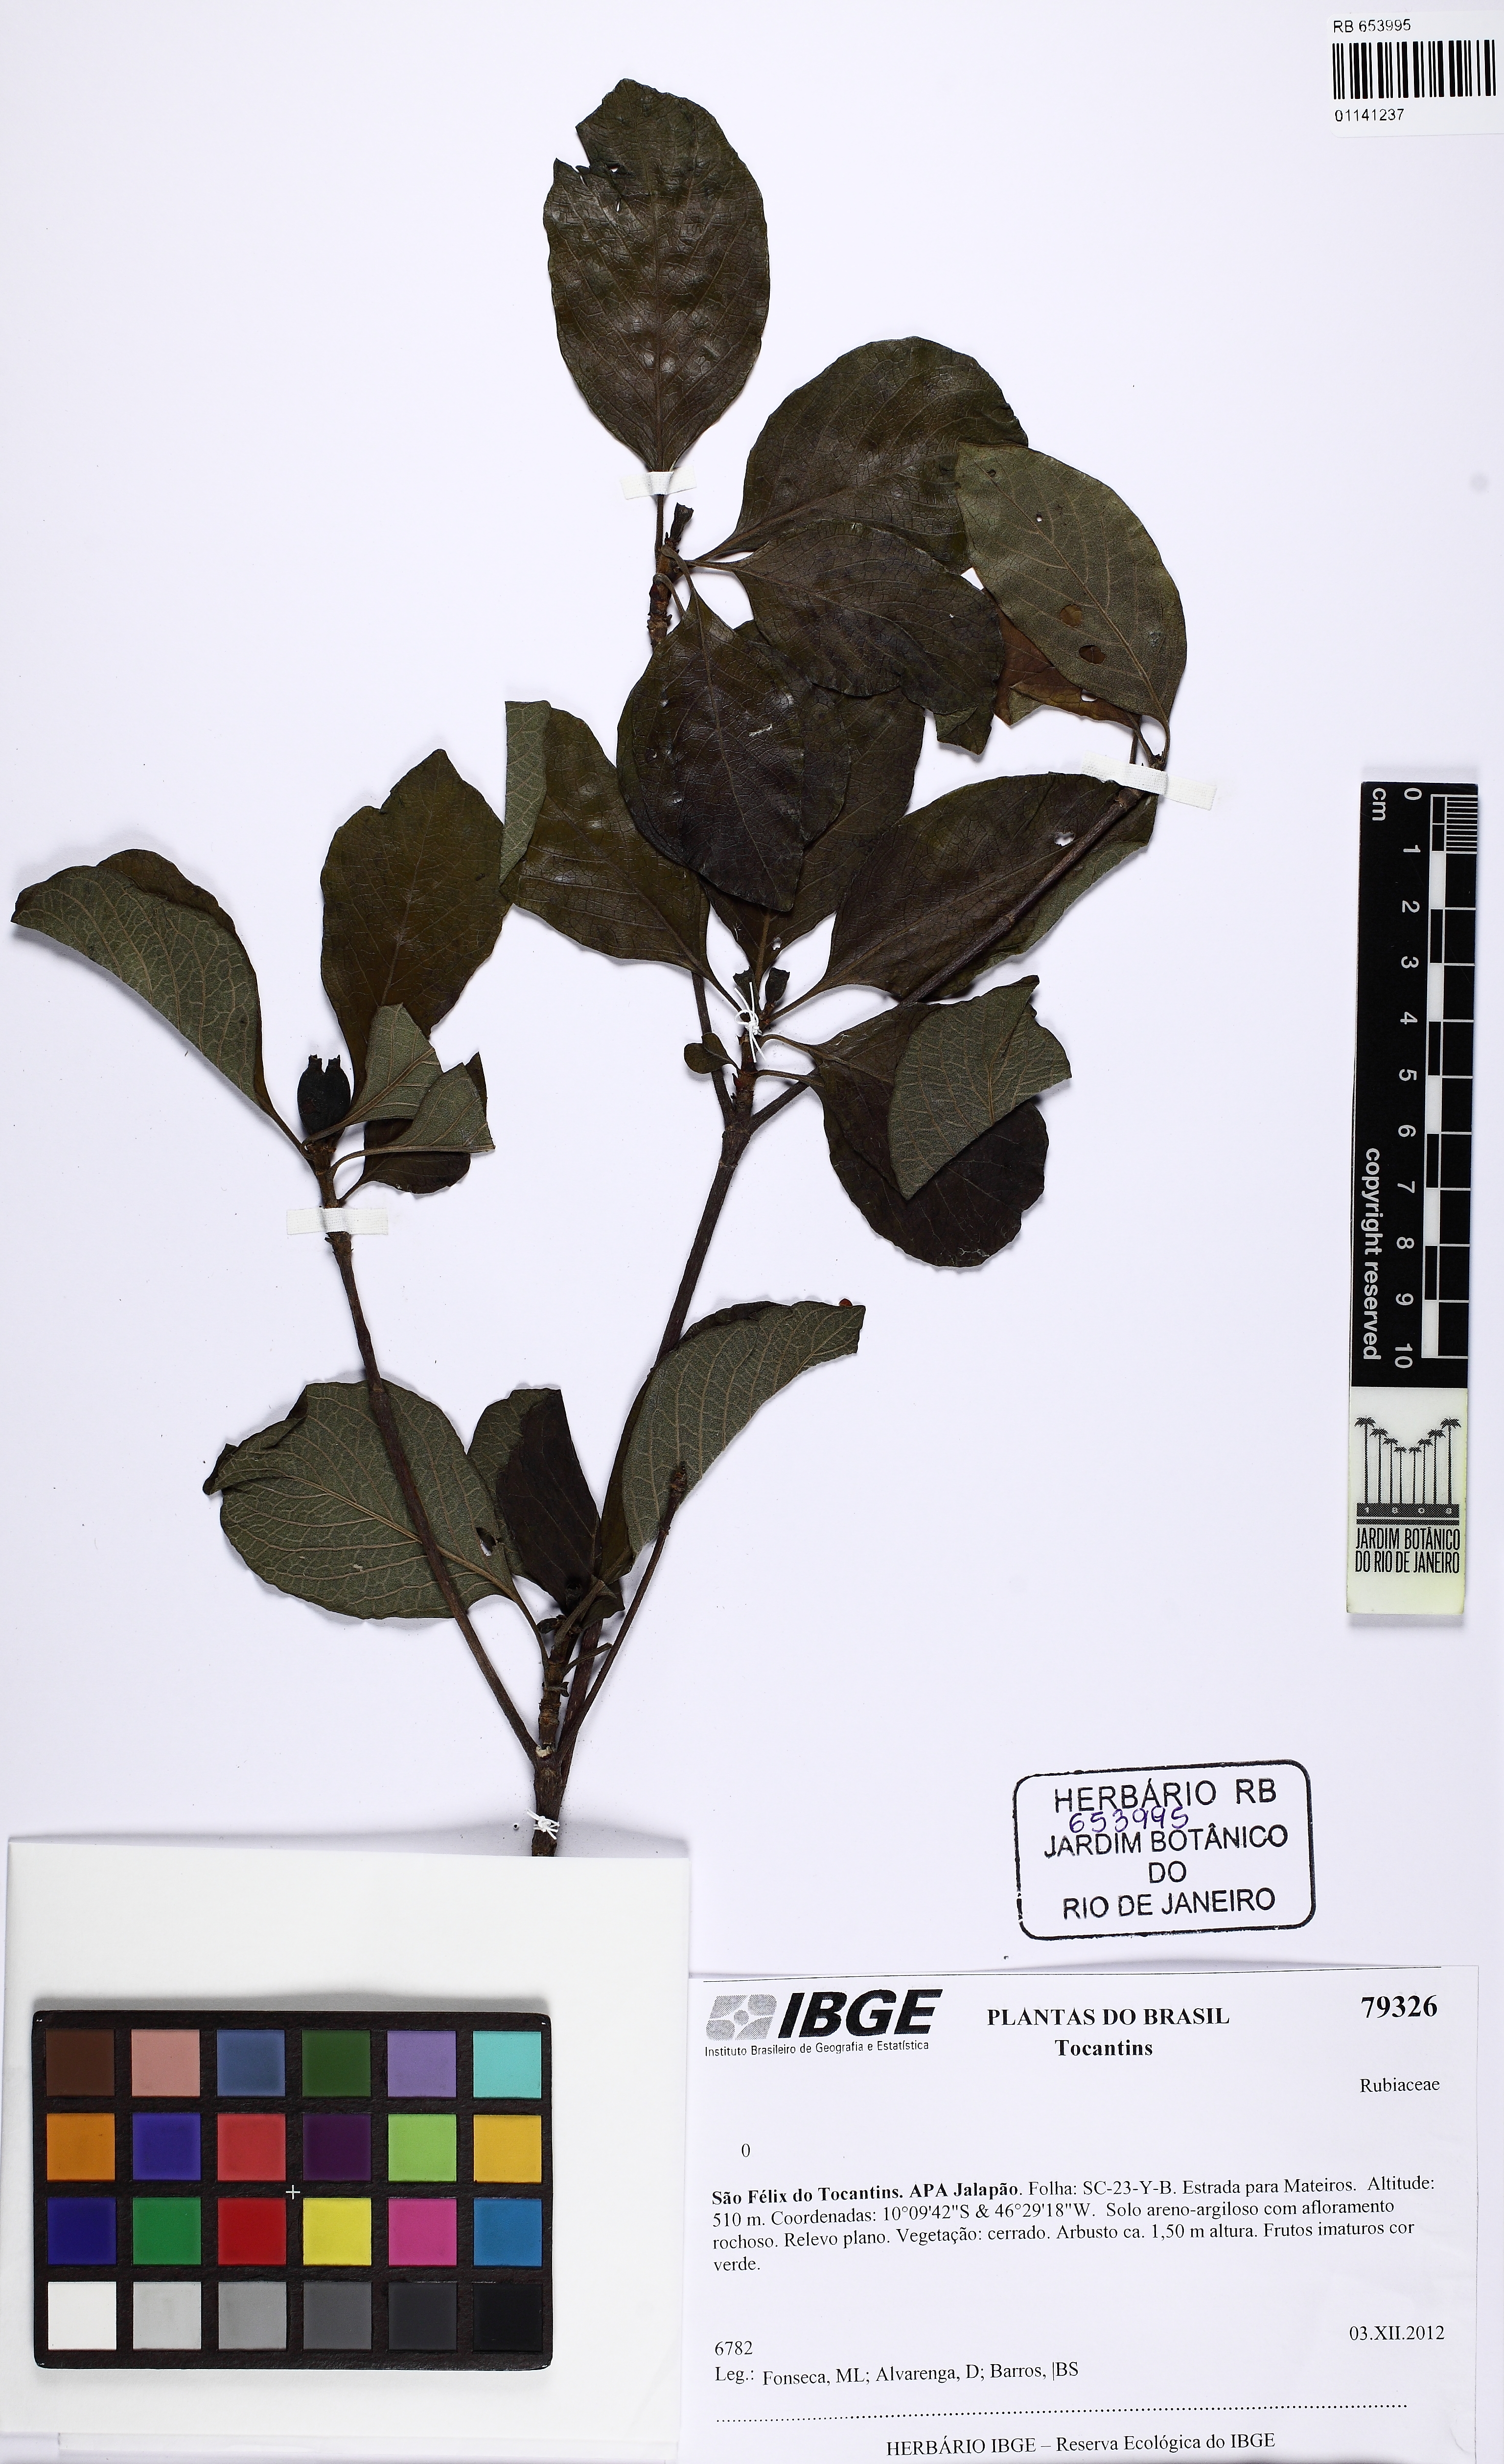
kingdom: Plantae
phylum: Tracheophyta
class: Magnoliopsida
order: Gentianales
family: Rubiaceae
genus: Chomelia
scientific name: Chomelia parviflora
